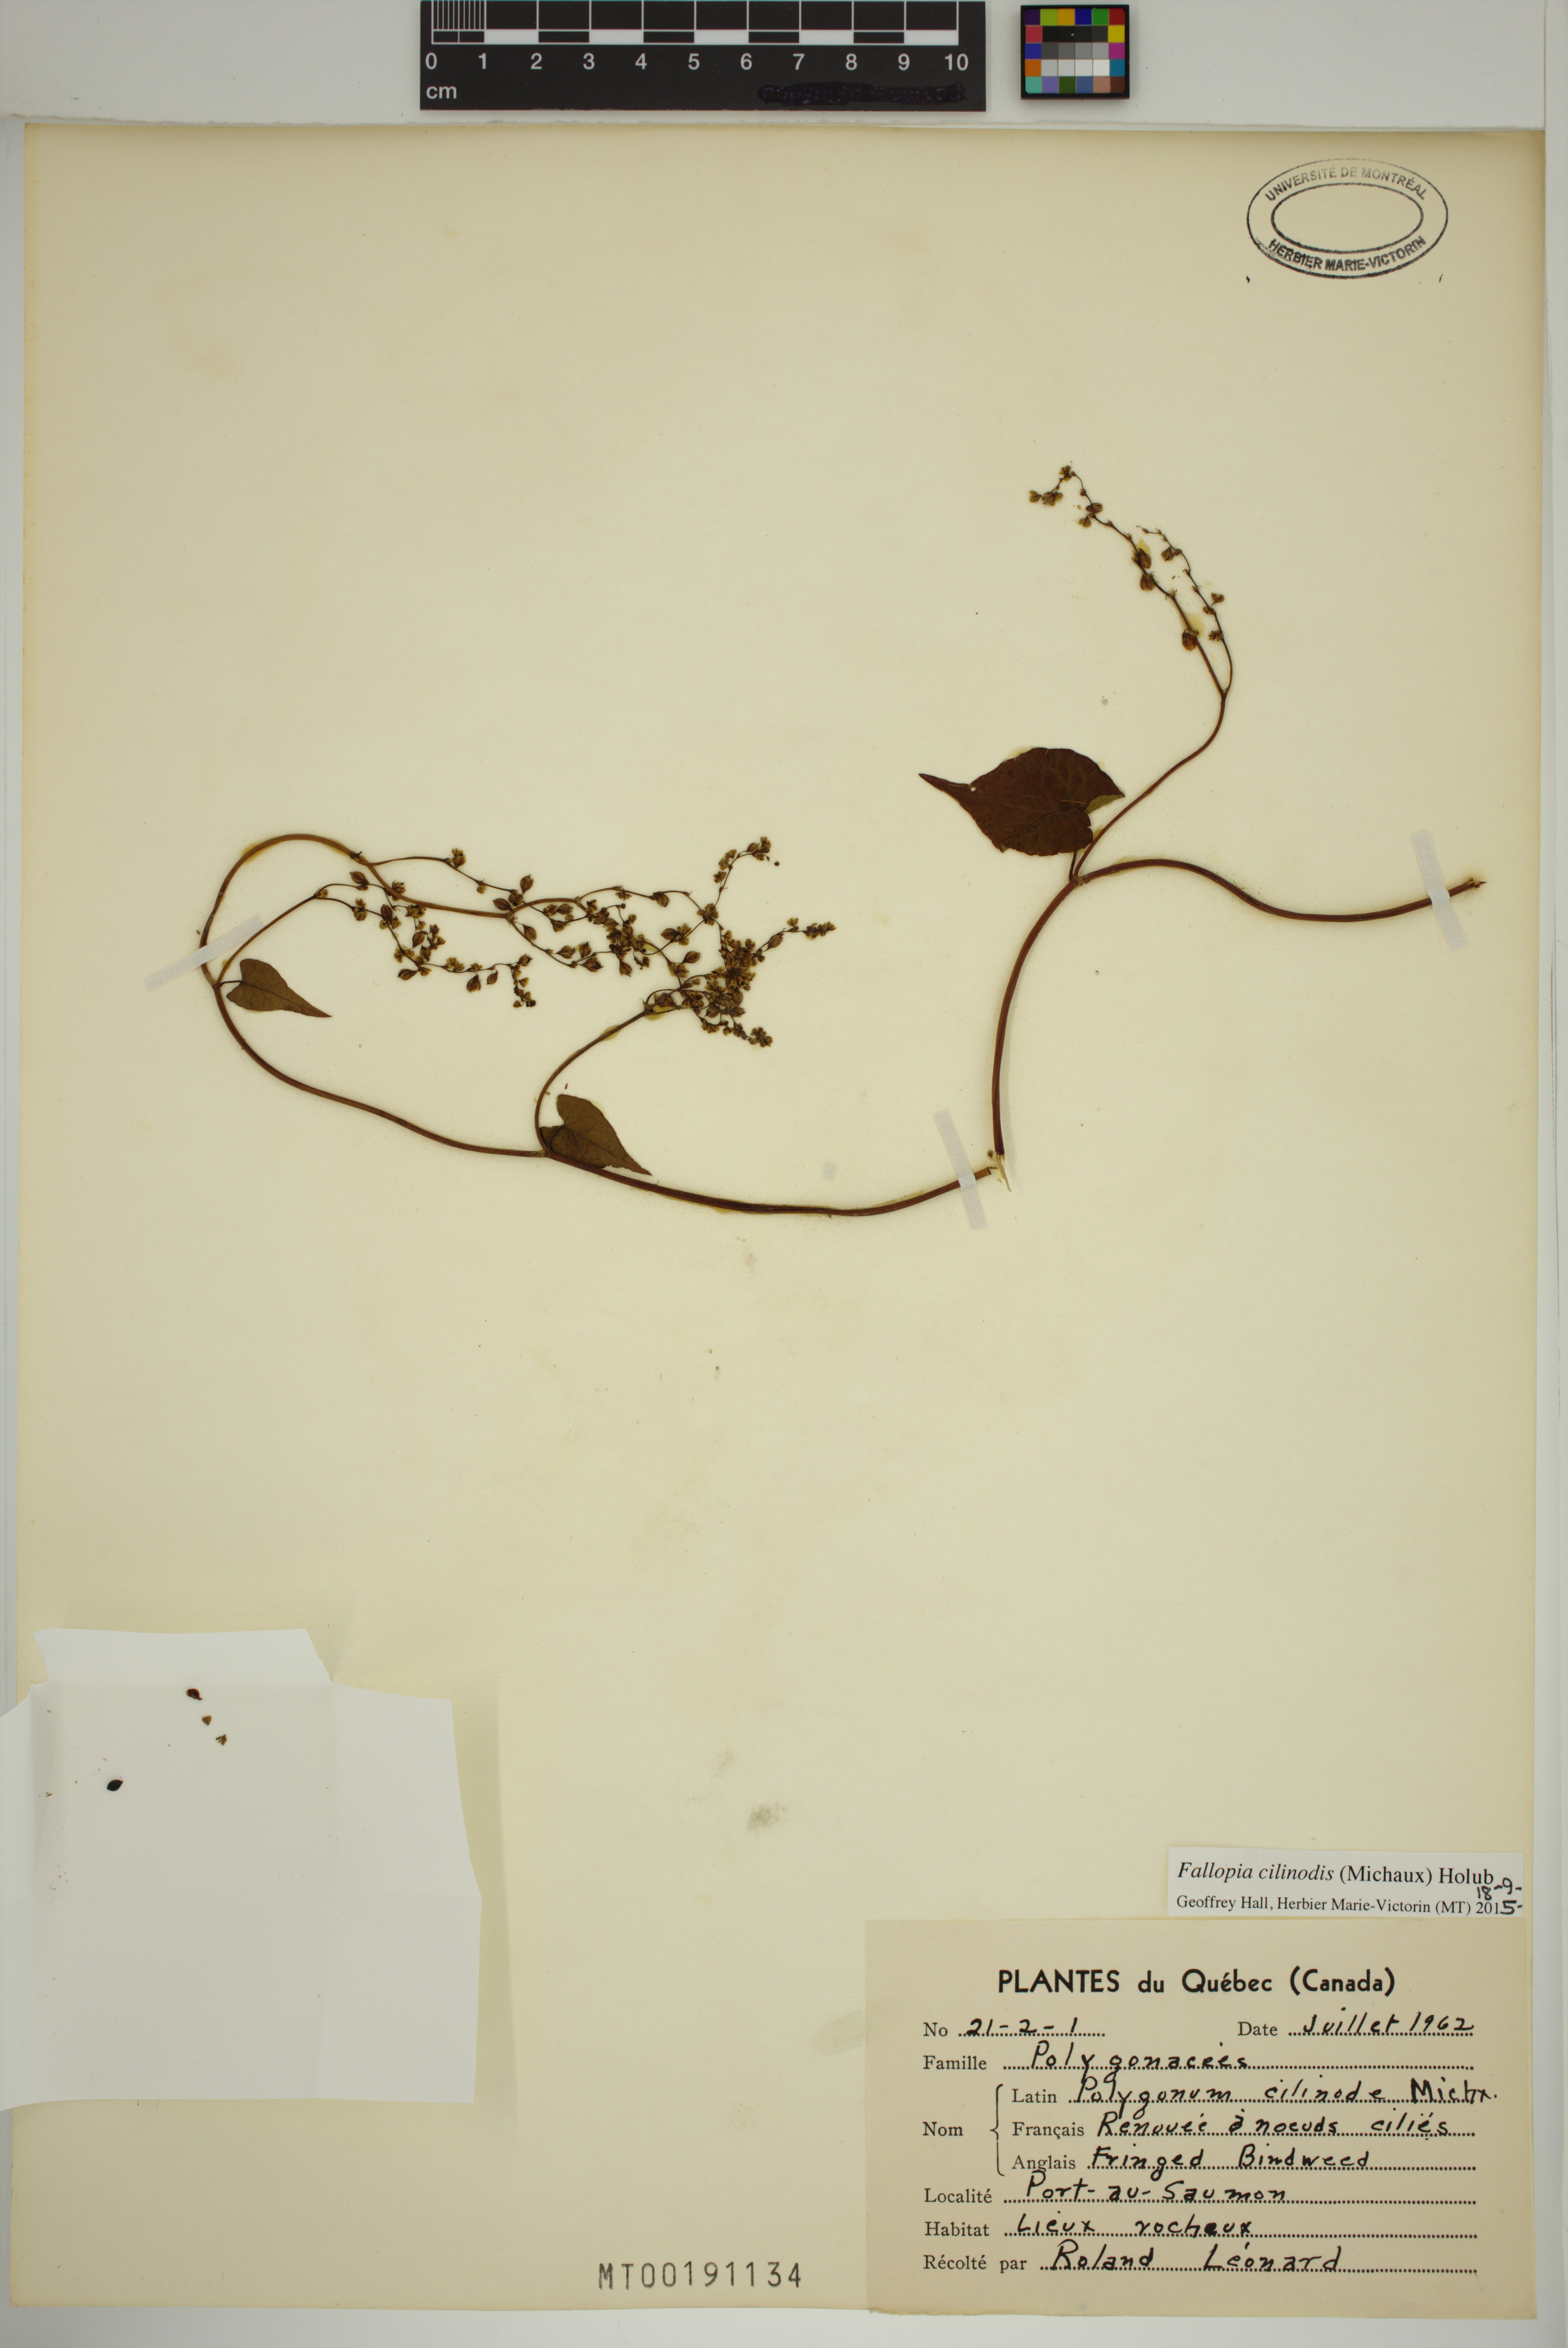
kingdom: Plantae
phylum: Tracheophyta
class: Magnoliopsida
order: Caryophyllales
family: Polygonaceae
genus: Parogonum
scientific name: Parogonum ciliinode
